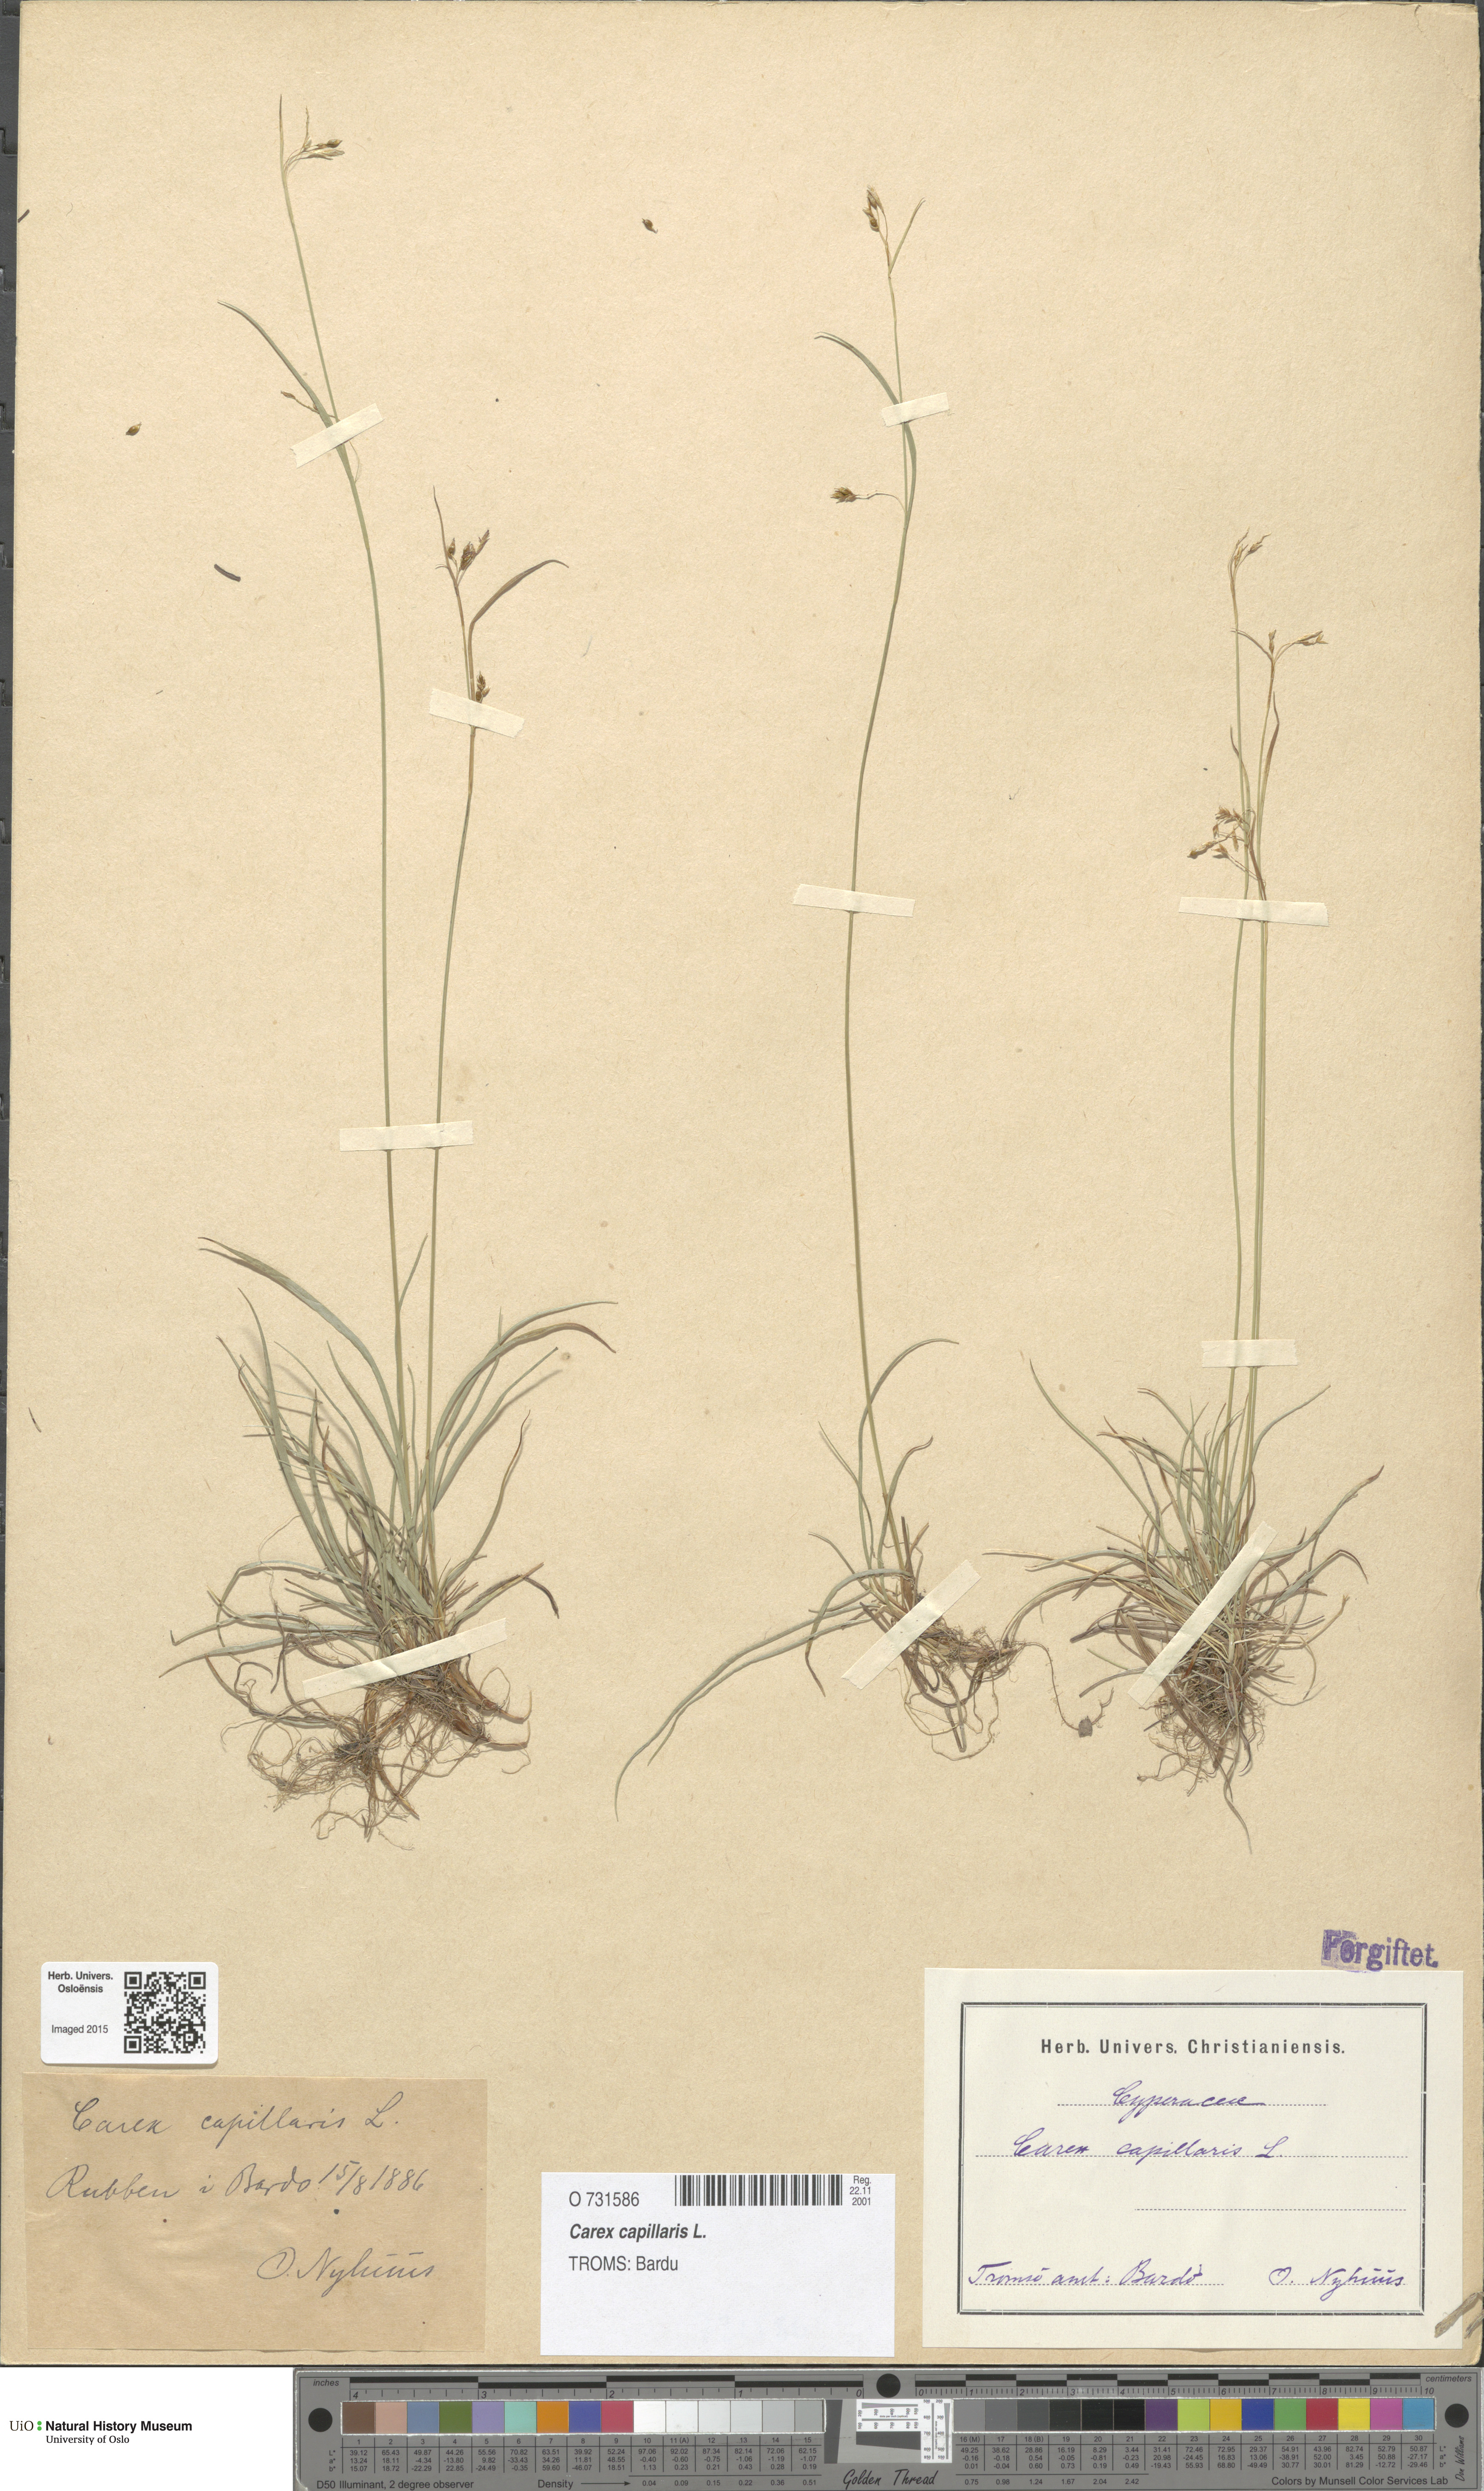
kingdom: Plantae
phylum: Tracheophyta
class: Liliopsida
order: Poales
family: Cyperaceae
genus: Carex
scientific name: Carex capillaris
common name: Hair sedge
